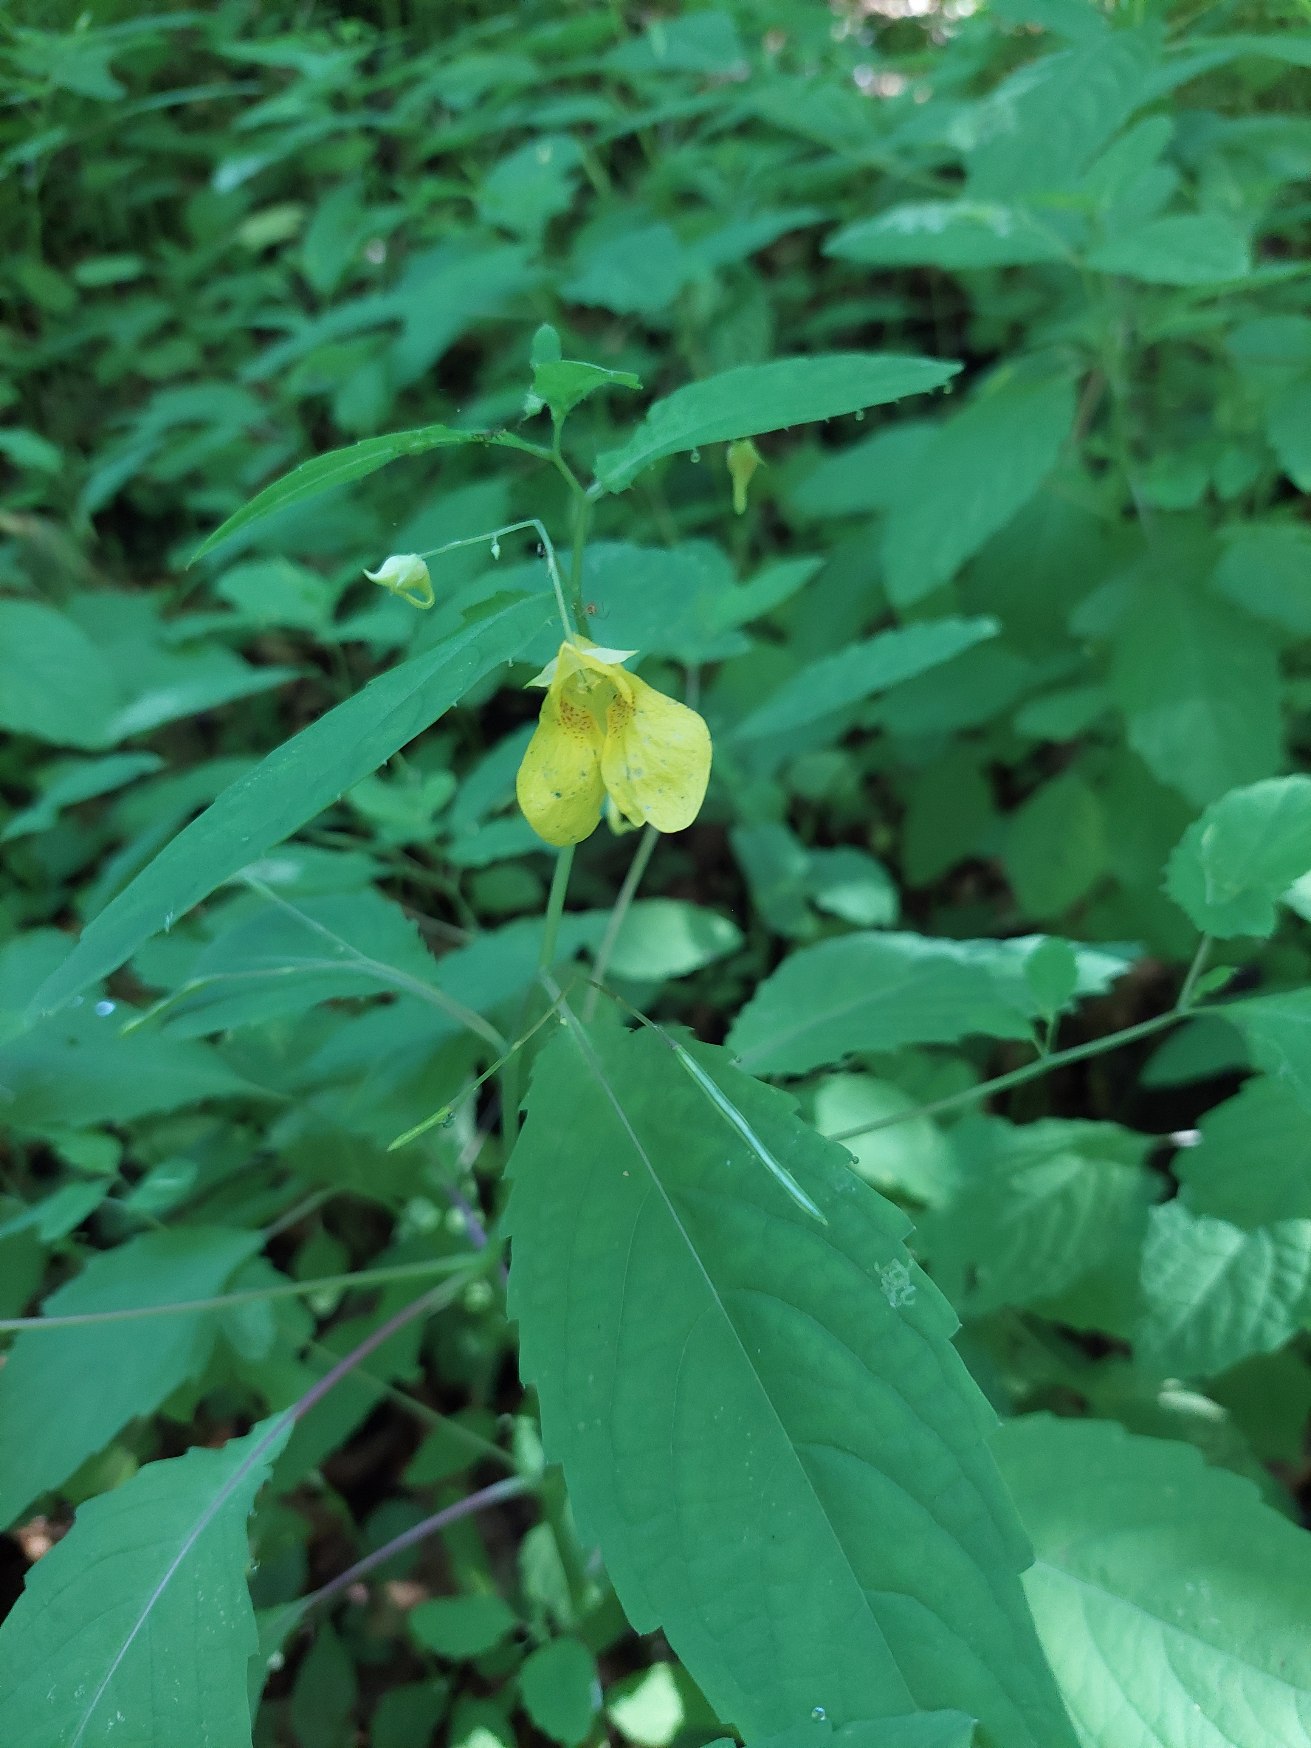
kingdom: Plantae
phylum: Tracheophyta
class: Magnoliopsida
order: Ericales
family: Balsaminaceae
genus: Impatiens
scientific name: Impatiens noli-tangere
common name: Spring-balsamin
